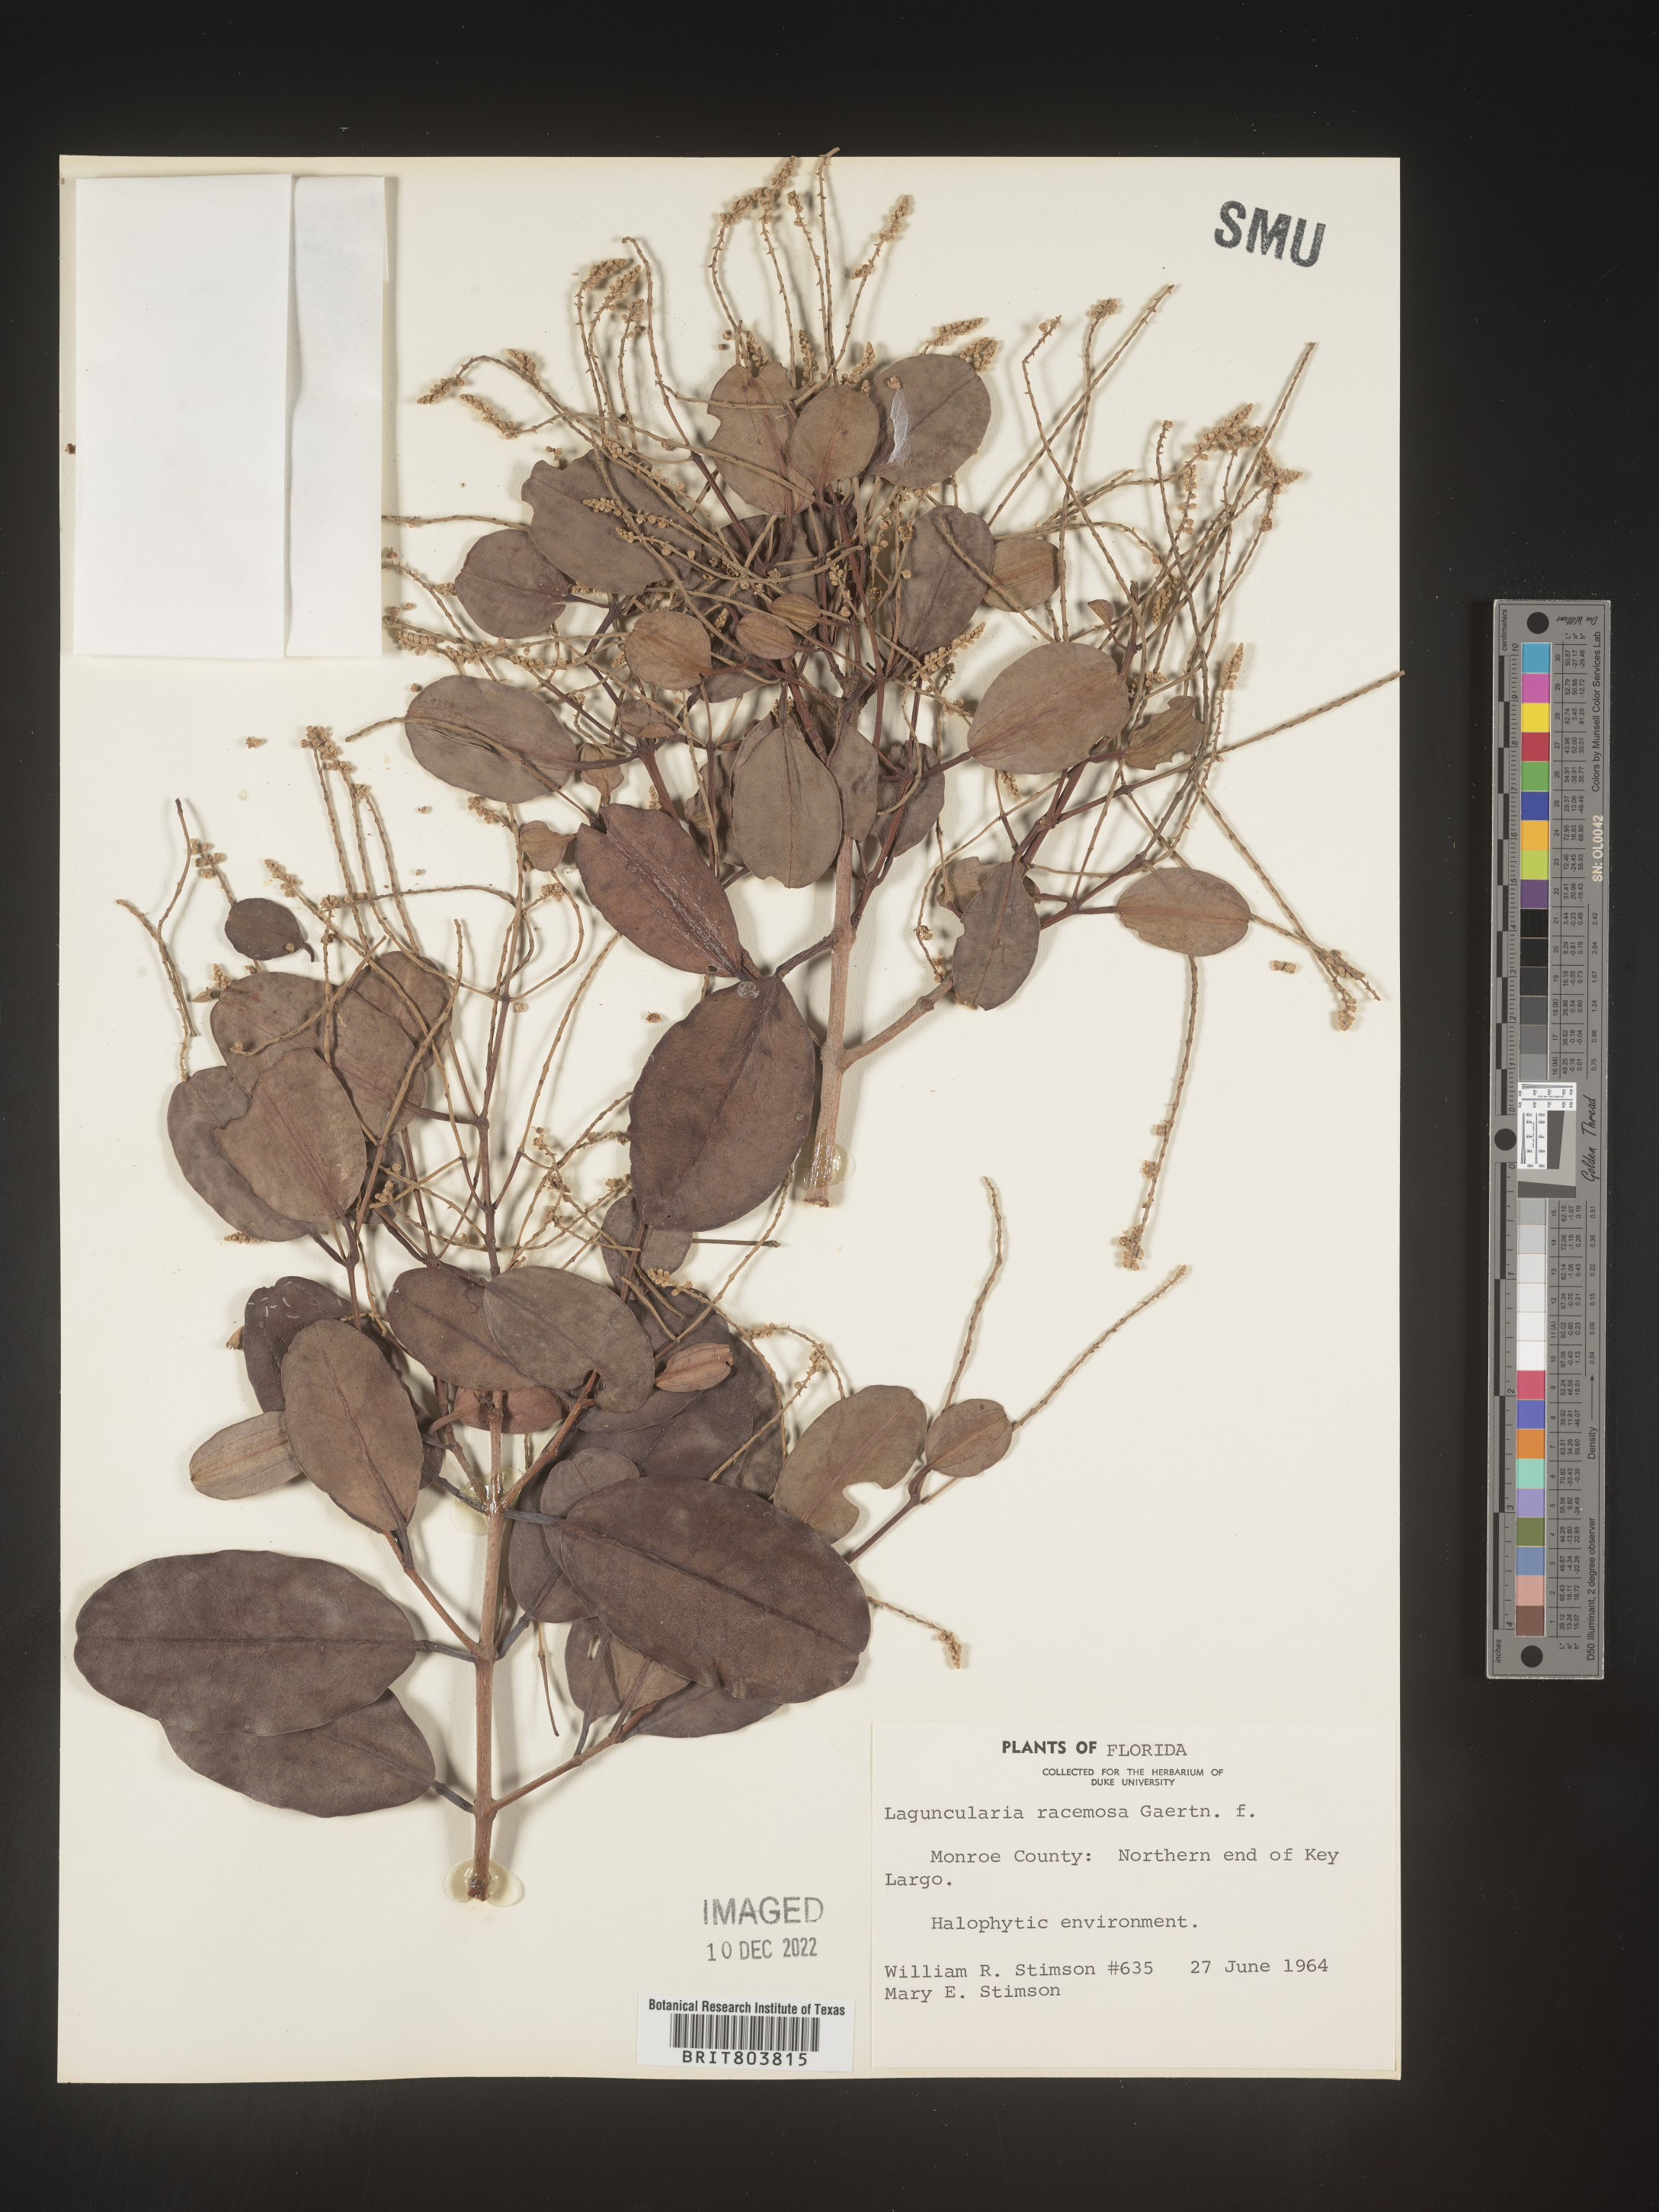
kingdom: Plantae
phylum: Tracheophyta
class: Magnoliopsida
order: Myrtales
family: Combretaceae
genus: Laguncularia
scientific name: Laguncularia
